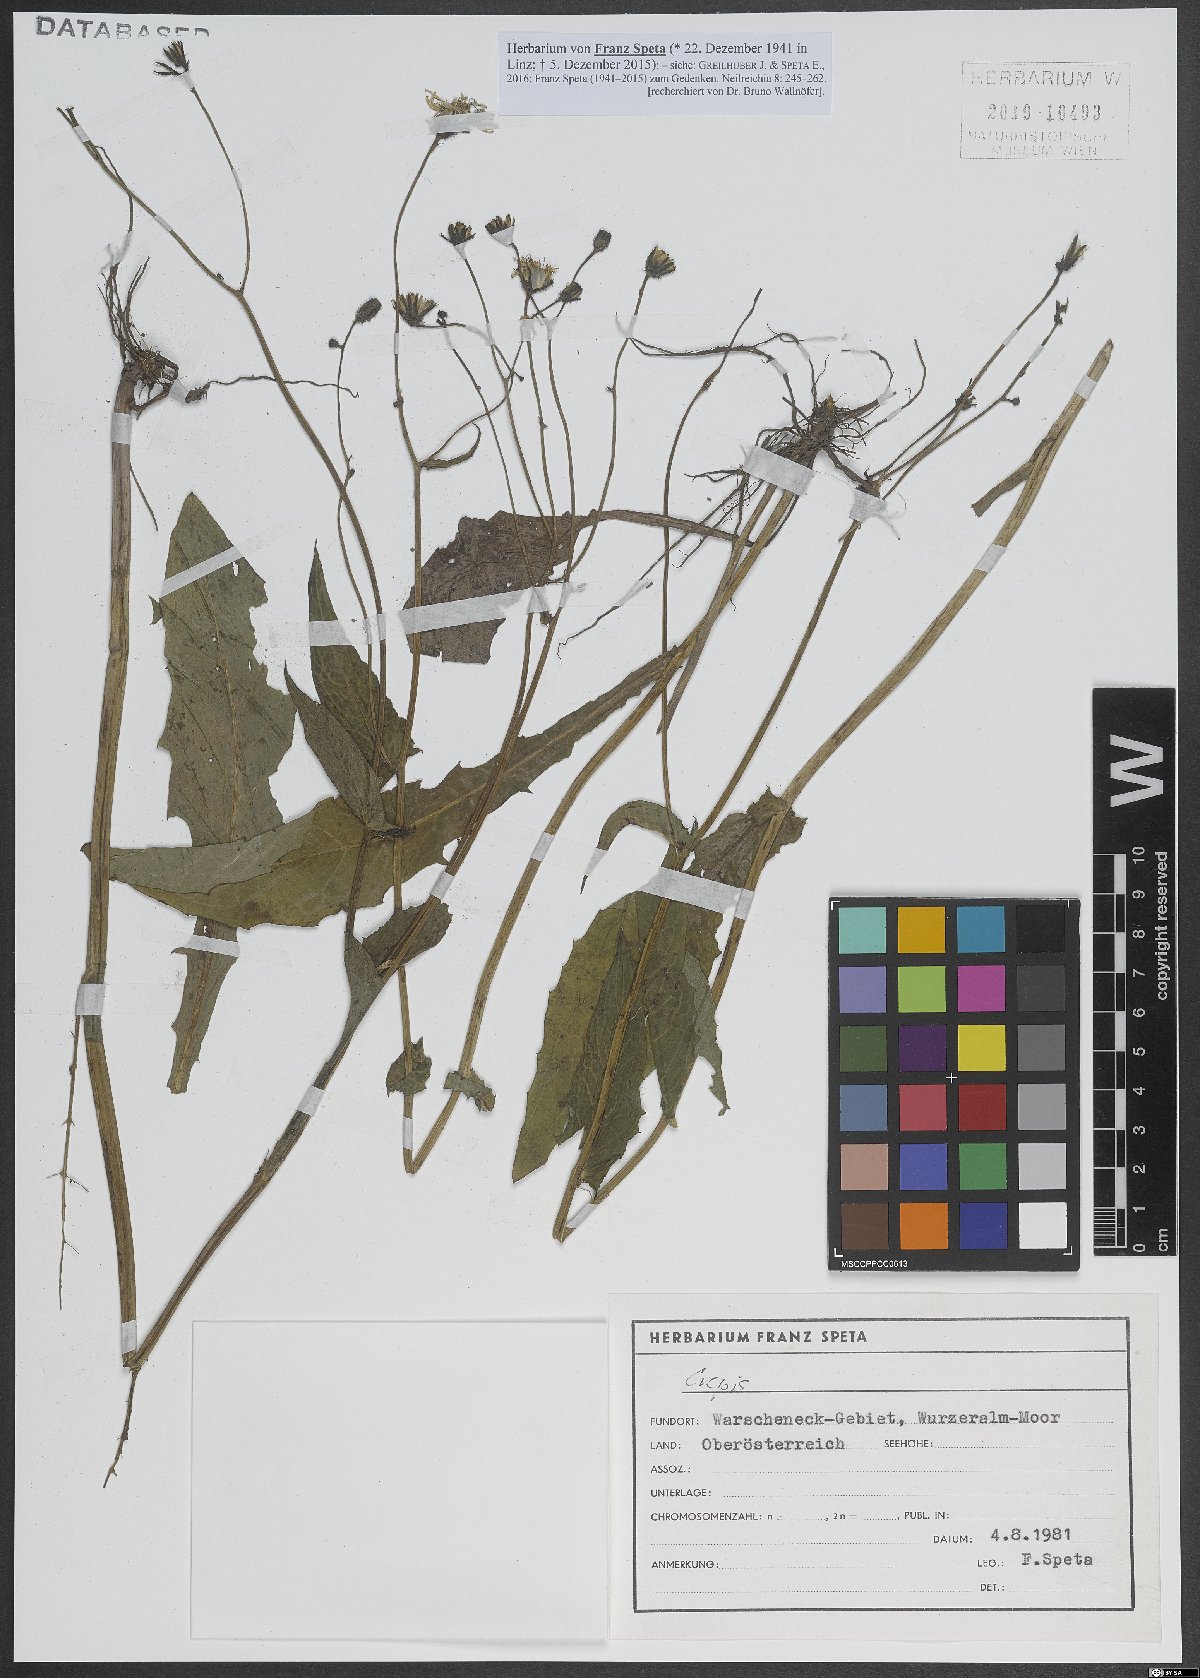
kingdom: Plantae
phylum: Tracheophyta
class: Magnoliopsida
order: Asterales
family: Asteraceae
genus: Crepis
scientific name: Crepis
